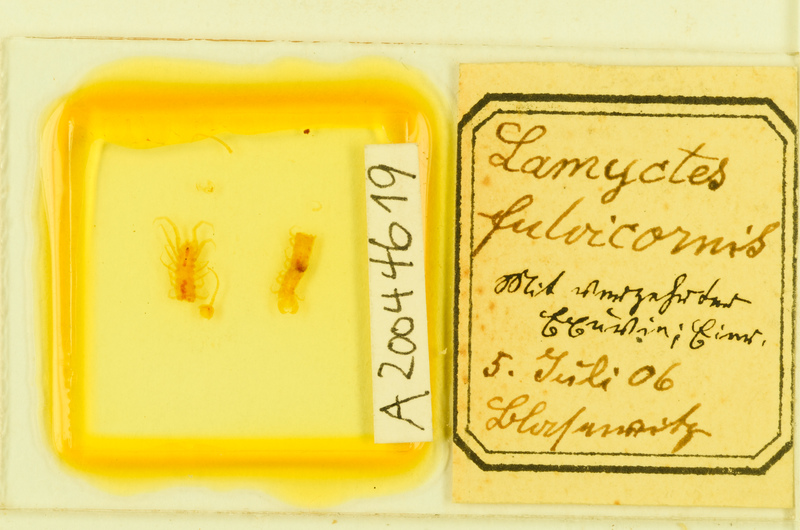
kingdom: Animalia
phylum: Arthropoda
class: Chilopoda
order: Lithobiomorpha
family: Henicopidae
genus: Lamyctes
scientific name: Lamyctes emarginatus
